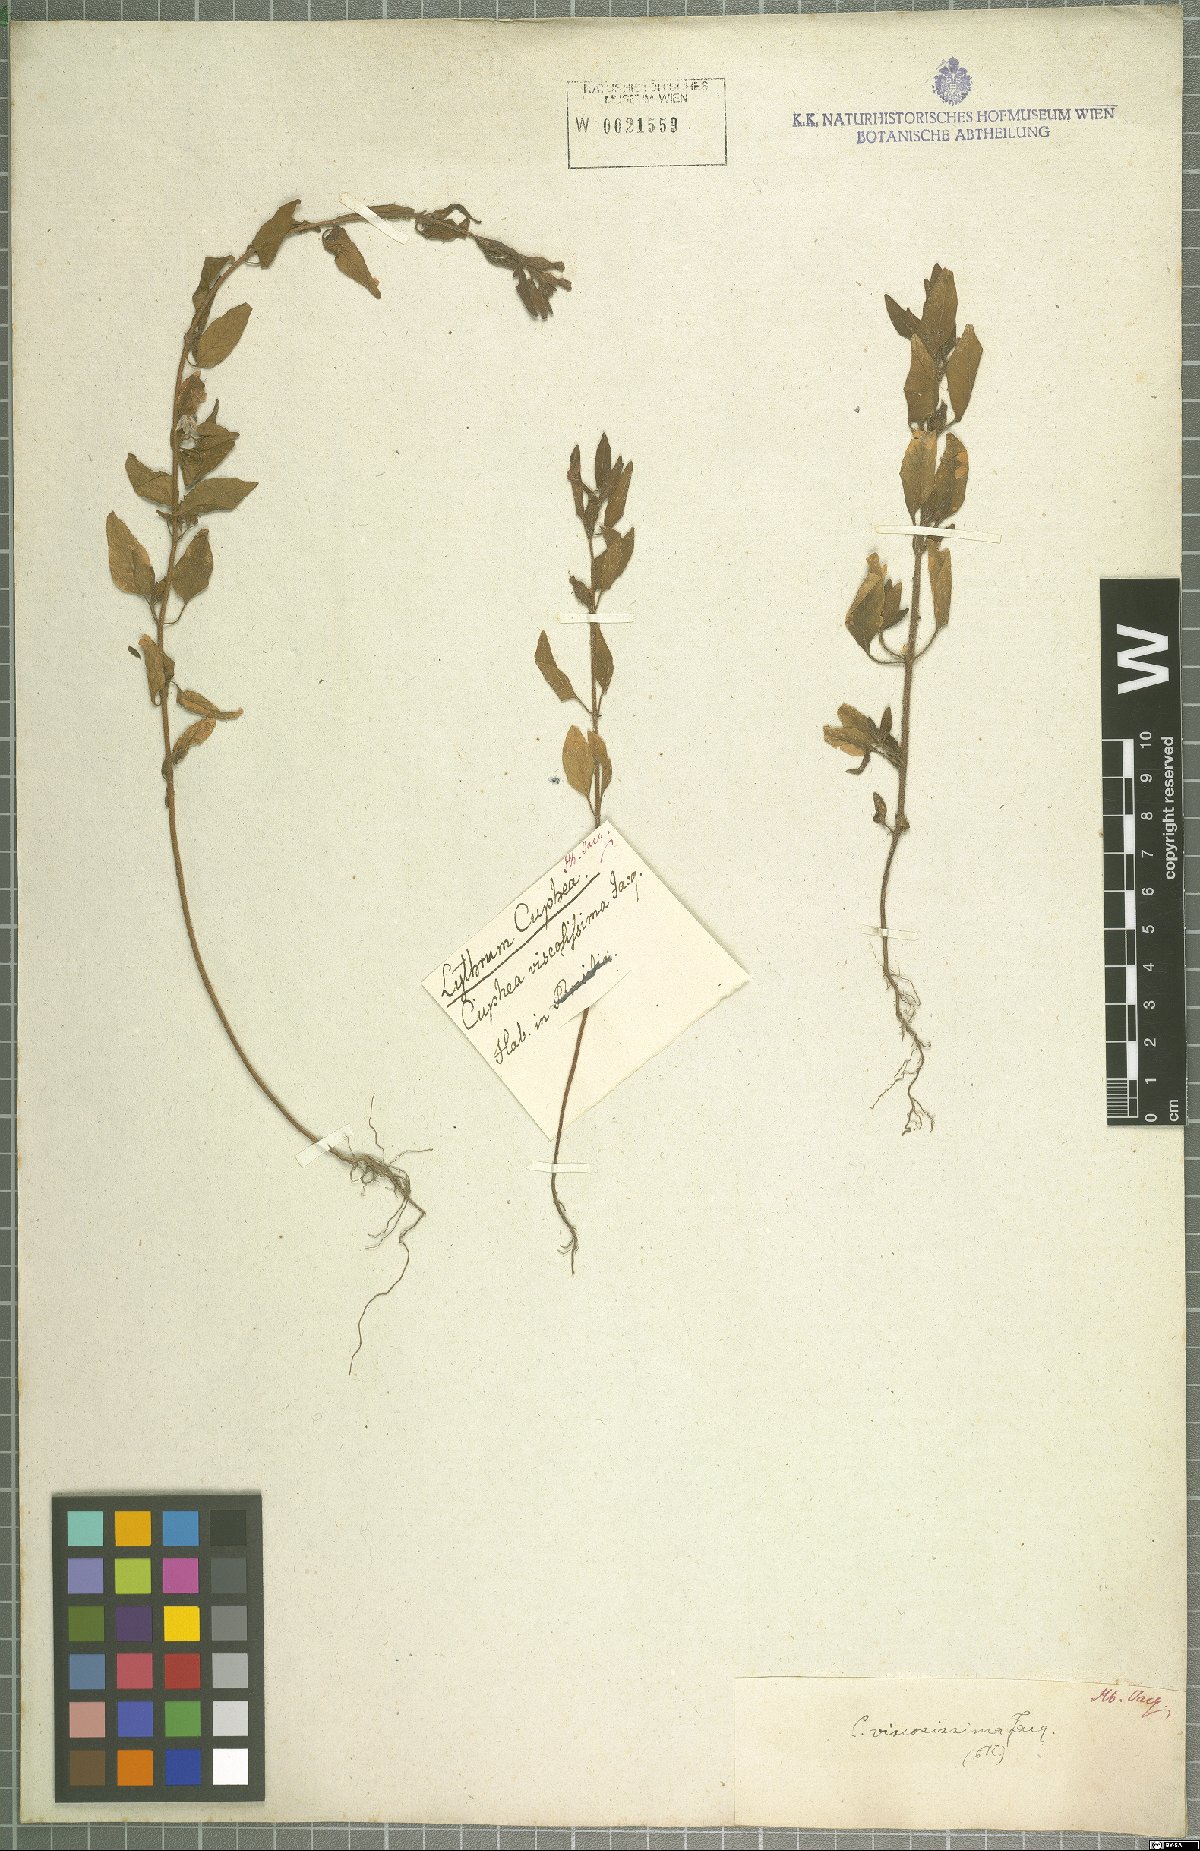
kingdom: Plantae
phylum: Tracheophyta
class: Magnoliopsida
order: Myrtales
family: Lythraceae
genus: Cuphea
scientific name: Cuphea viscosissima
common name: Clammy cuphea
